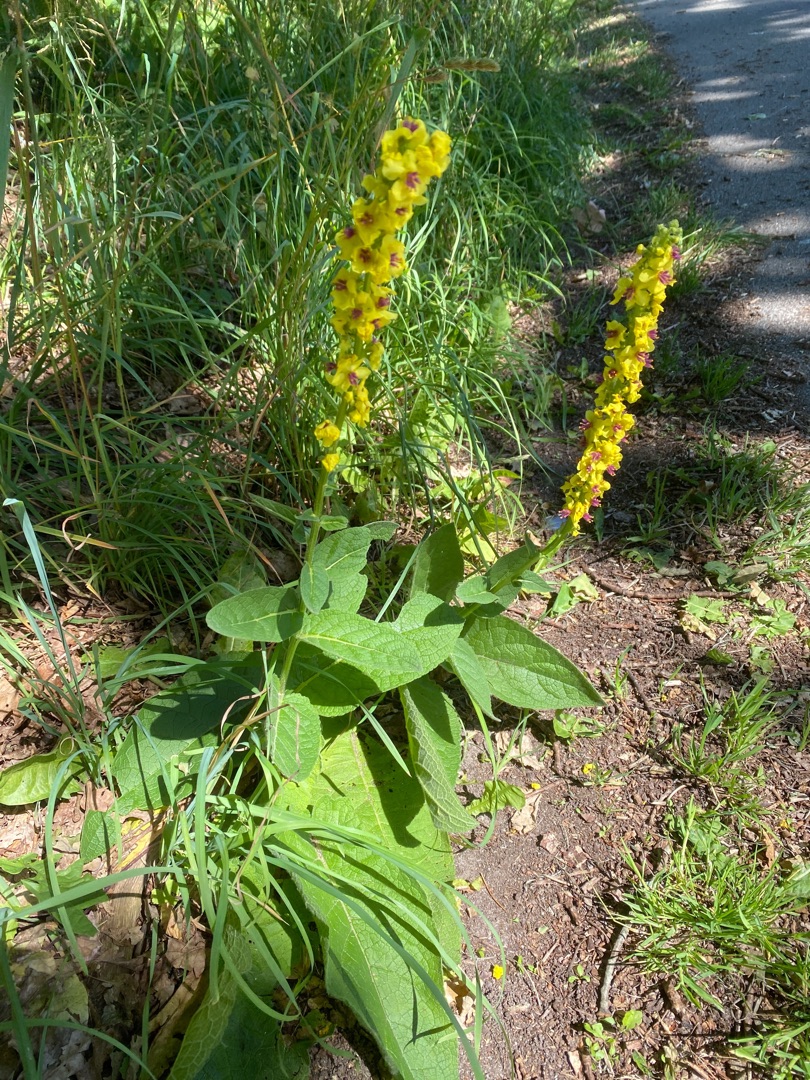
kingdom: Plantae
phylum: Tracheophyta
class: Magnoliopsida
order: Lamiales
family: Scrophulariaceae
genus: Verbascum
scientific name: Verbascum nigrum
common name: Mørk kongelys
